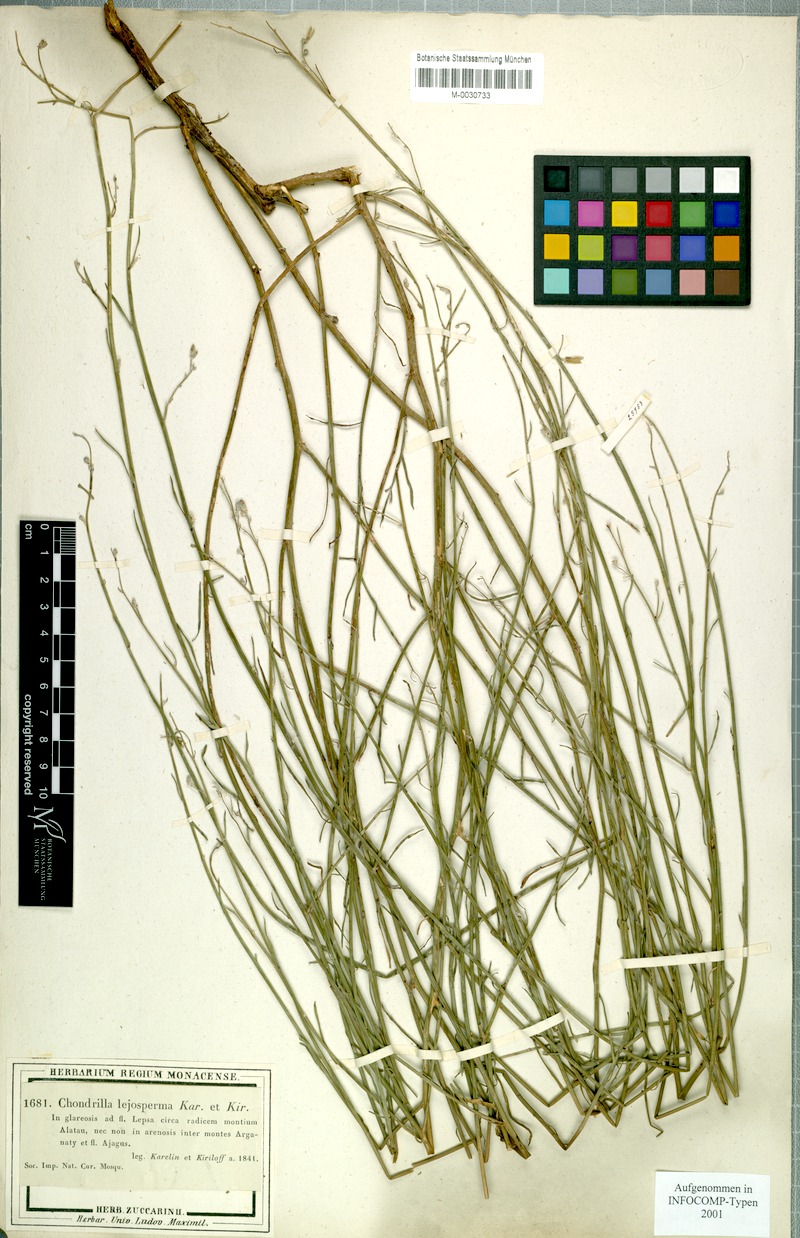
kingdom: Plantae
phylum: Tracheophyta
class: Magnoliopsida
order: Asterales
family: Asteraceae
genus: Chondrilla
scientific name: Chondrilla lejosperma
